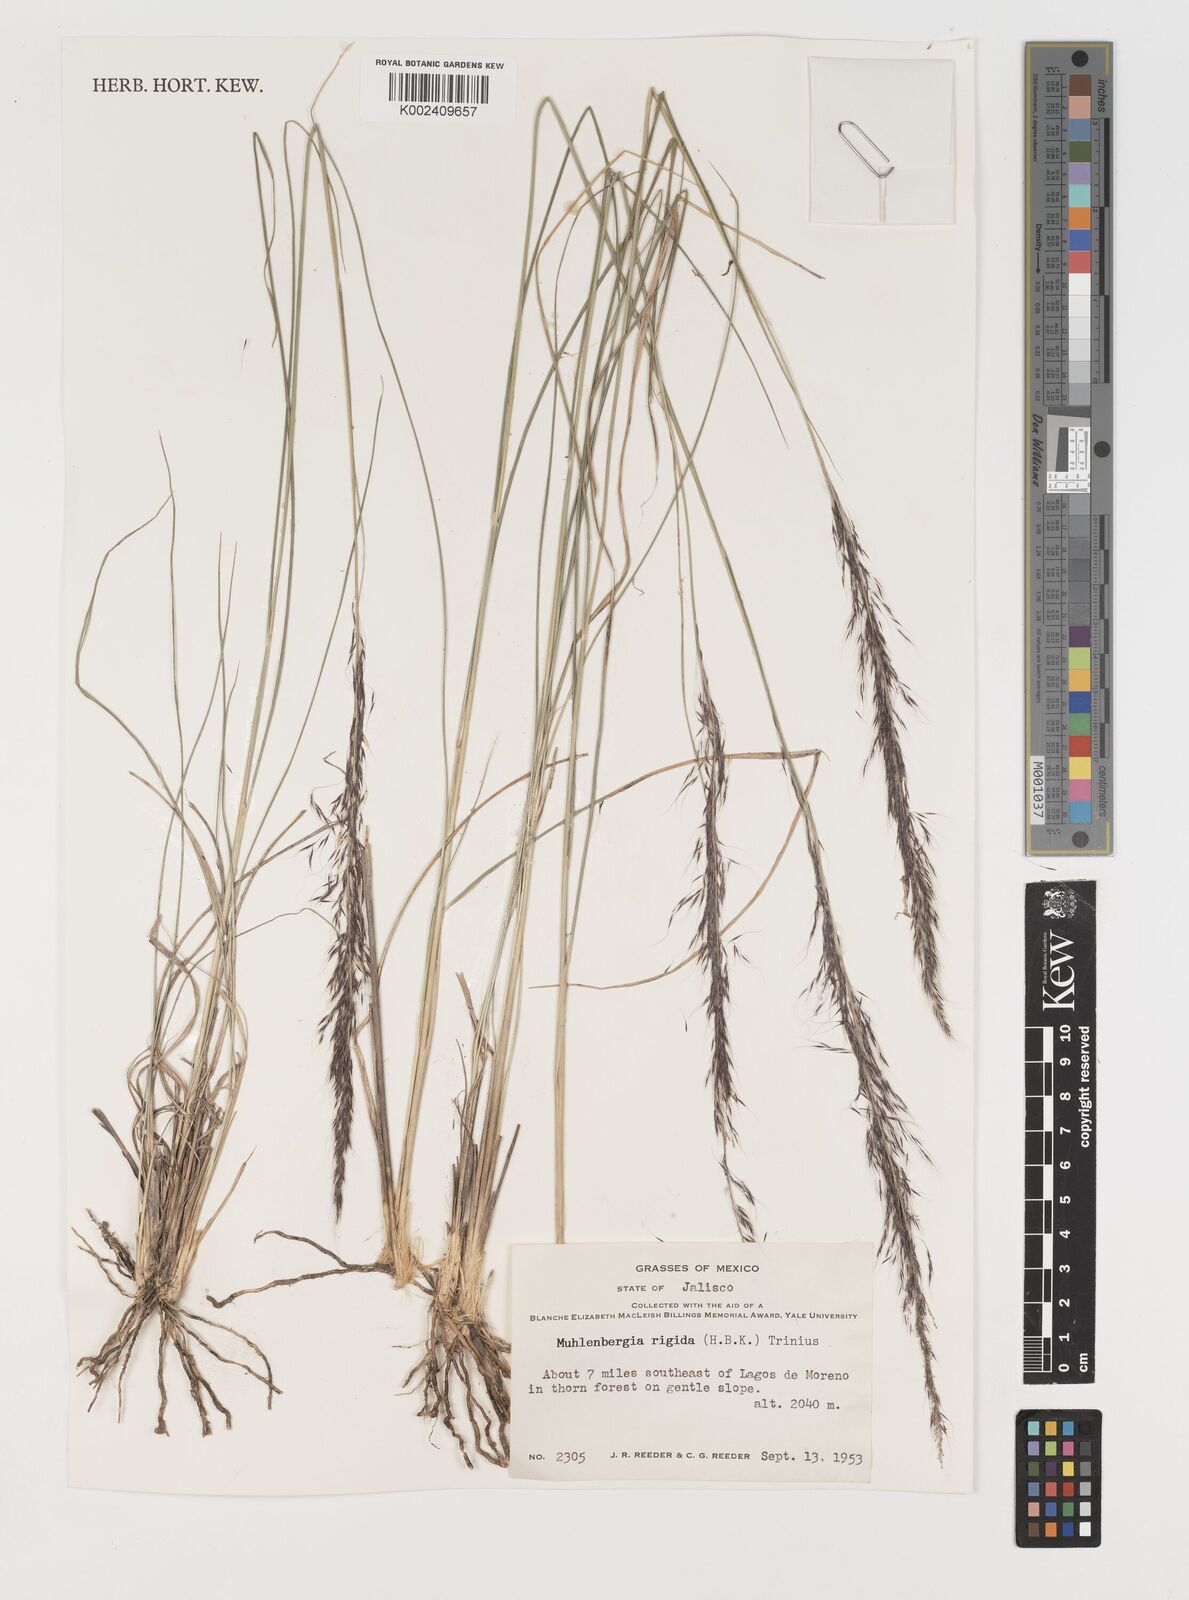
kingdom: Plantae
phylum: Tracheophyta
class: Liliopsida
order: Poales
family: Poaceae
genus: Muhlenbergia
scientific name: Muhlenbergia rigida
